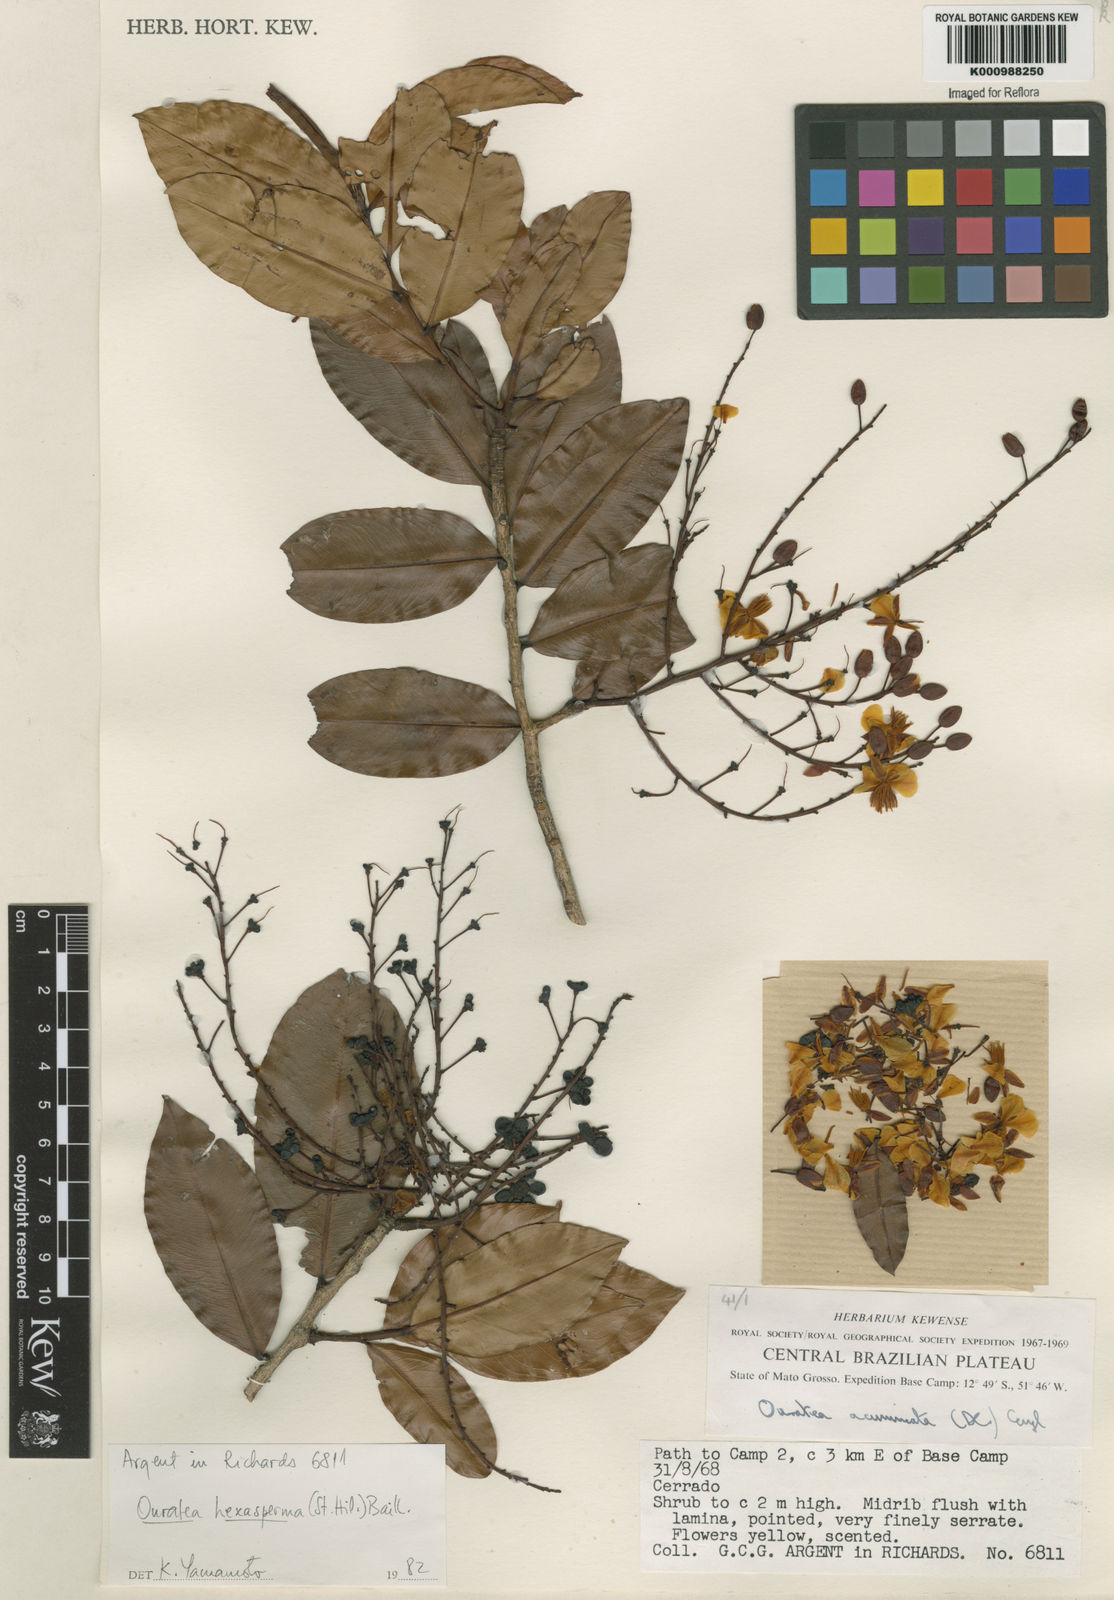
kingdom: Plantae
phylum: Tracheophyta
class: Magnoliopsida
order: Malpighiales
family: Ochnaceae
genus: Ouratea
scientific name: Ouratea hexasperma
